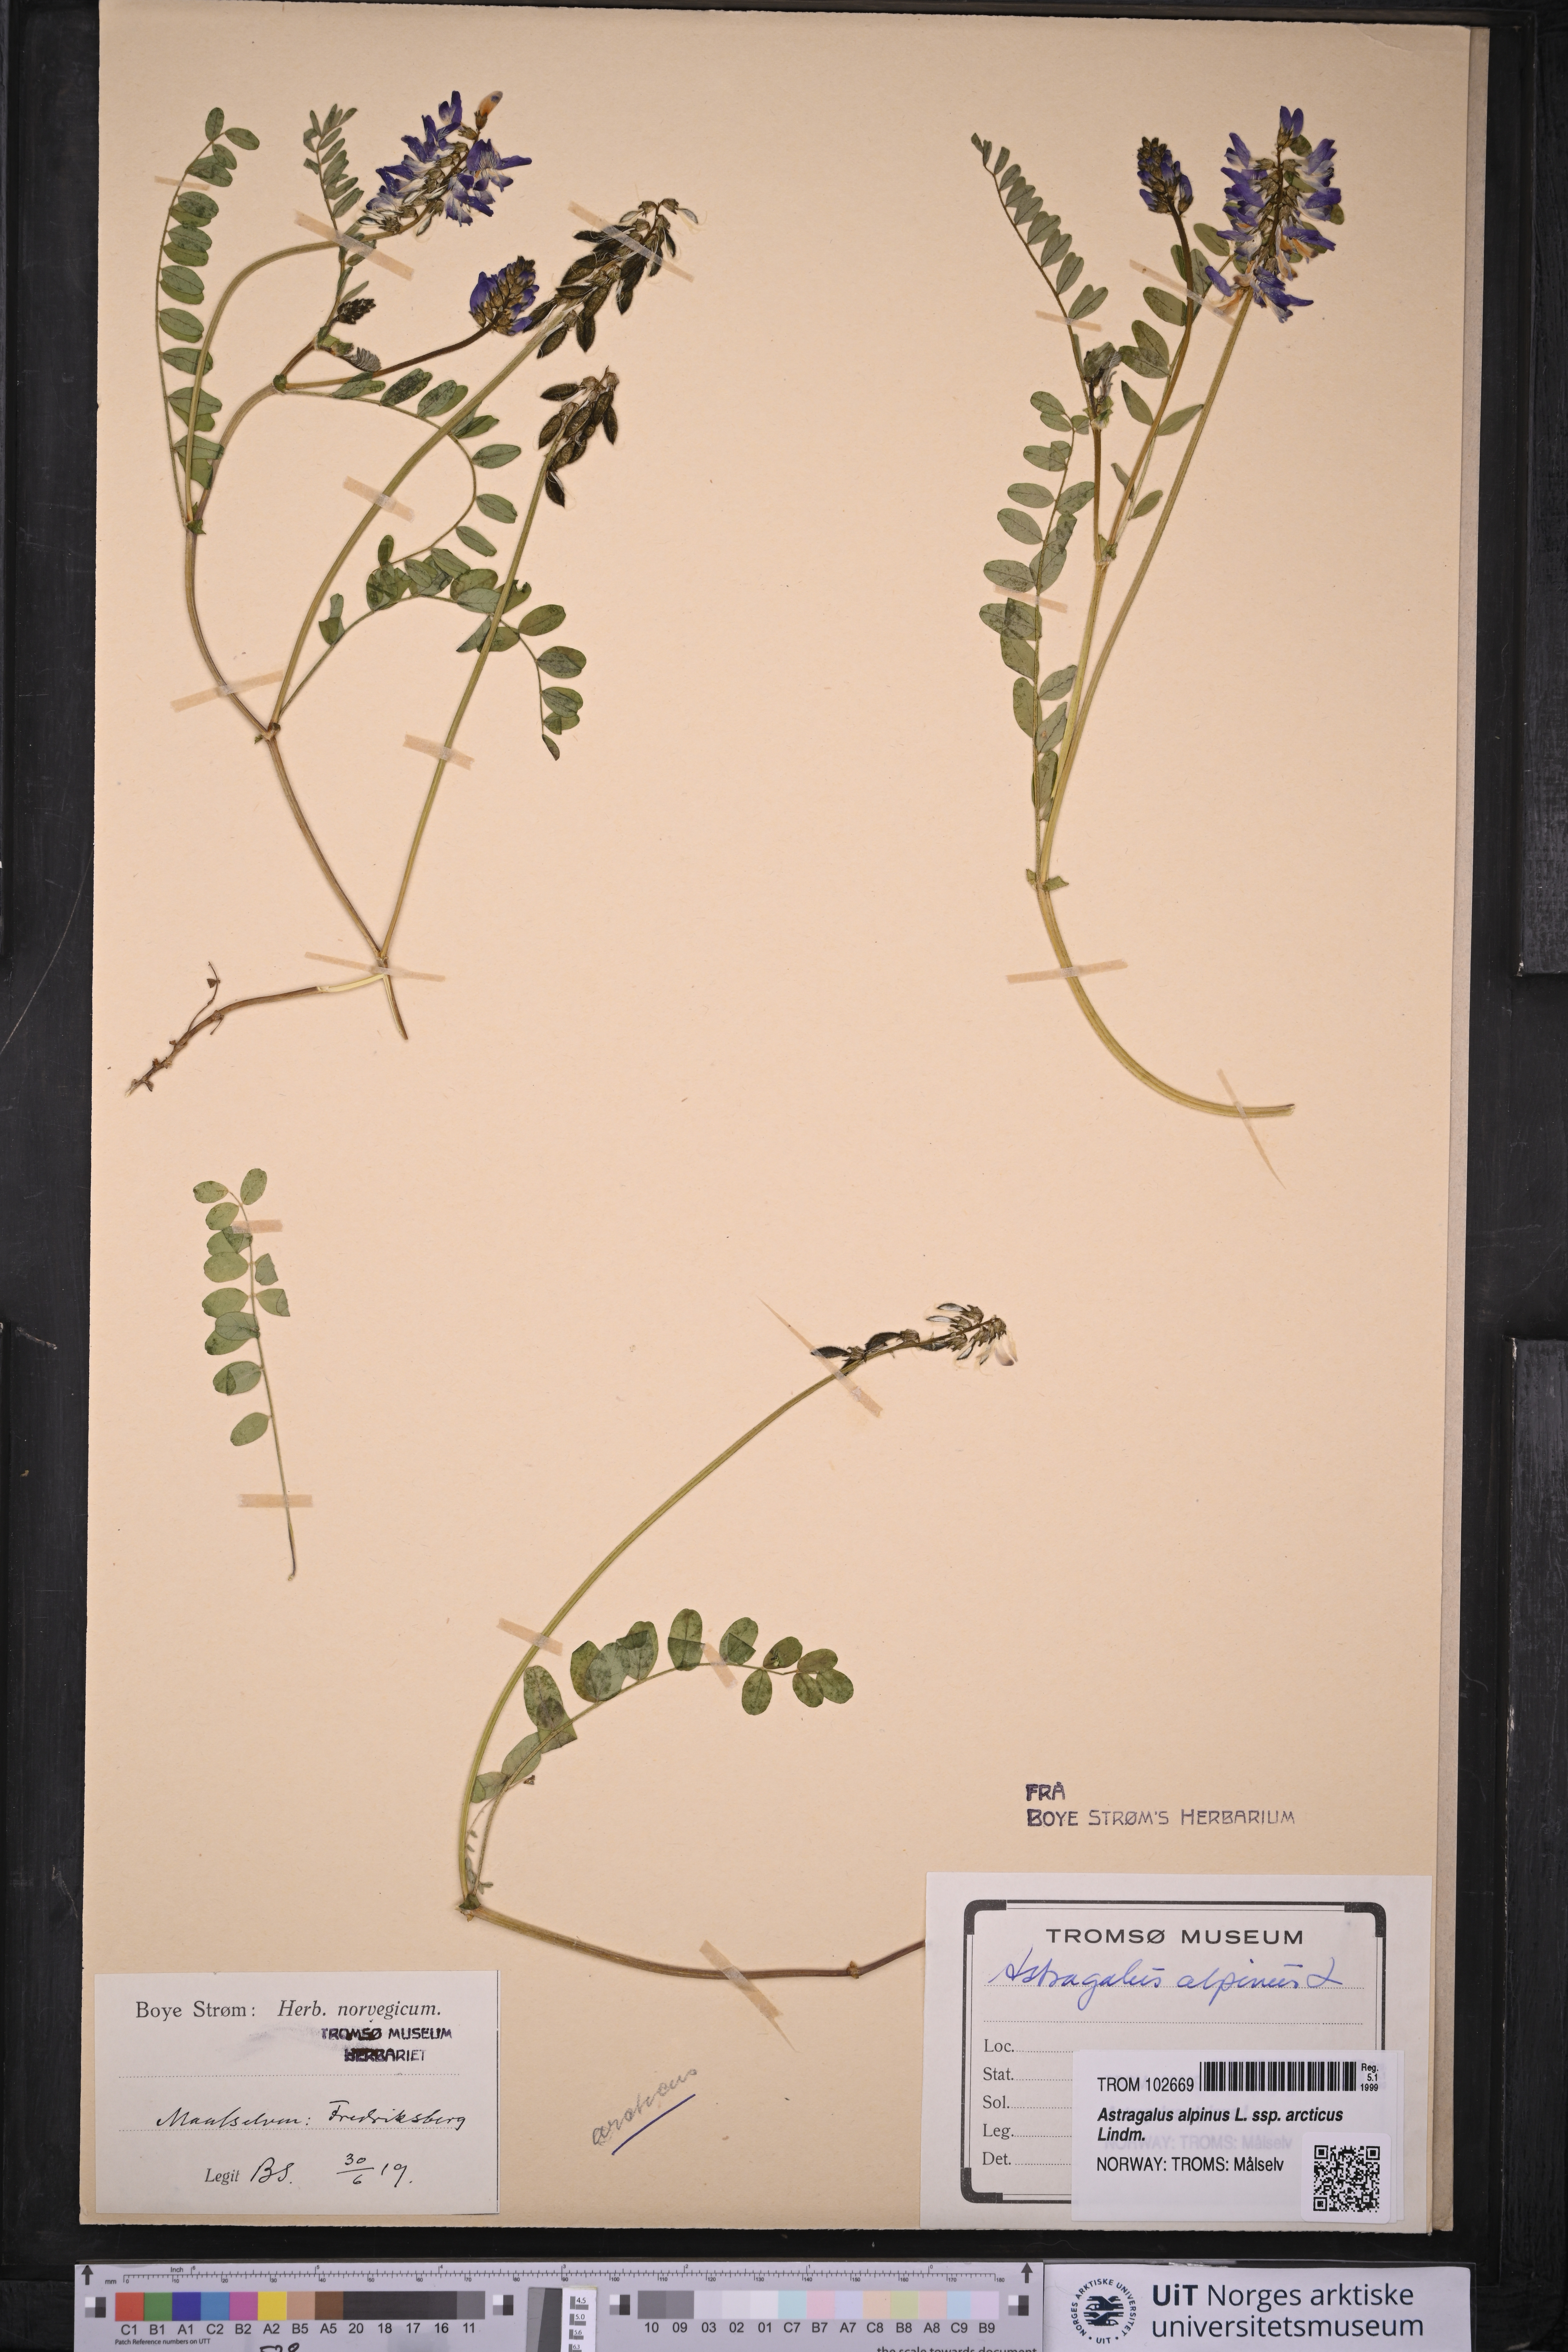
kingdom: Plantae
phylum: Tracheophyta
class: Magnoliopsida
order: Fabales
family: Fabaceae
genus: Astragalus
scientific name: Astragalus norvegicus
